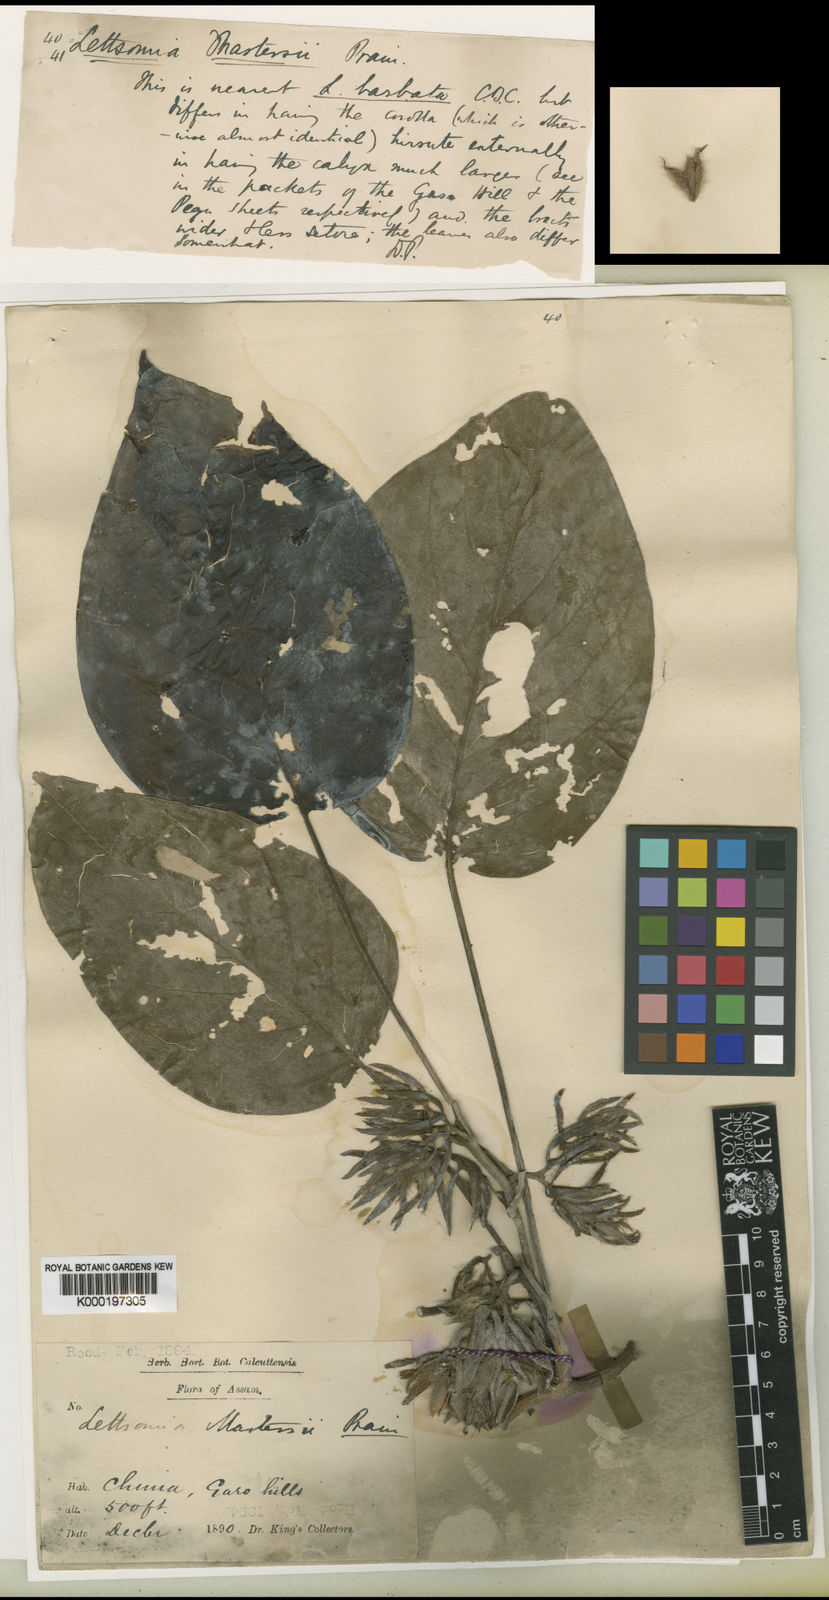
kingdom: Plantae
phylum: Tracheophyta
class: Magnoliopsida
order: Solanales
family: Convolvulaceae
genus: Argyreia
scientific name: Argyreia mastersii
